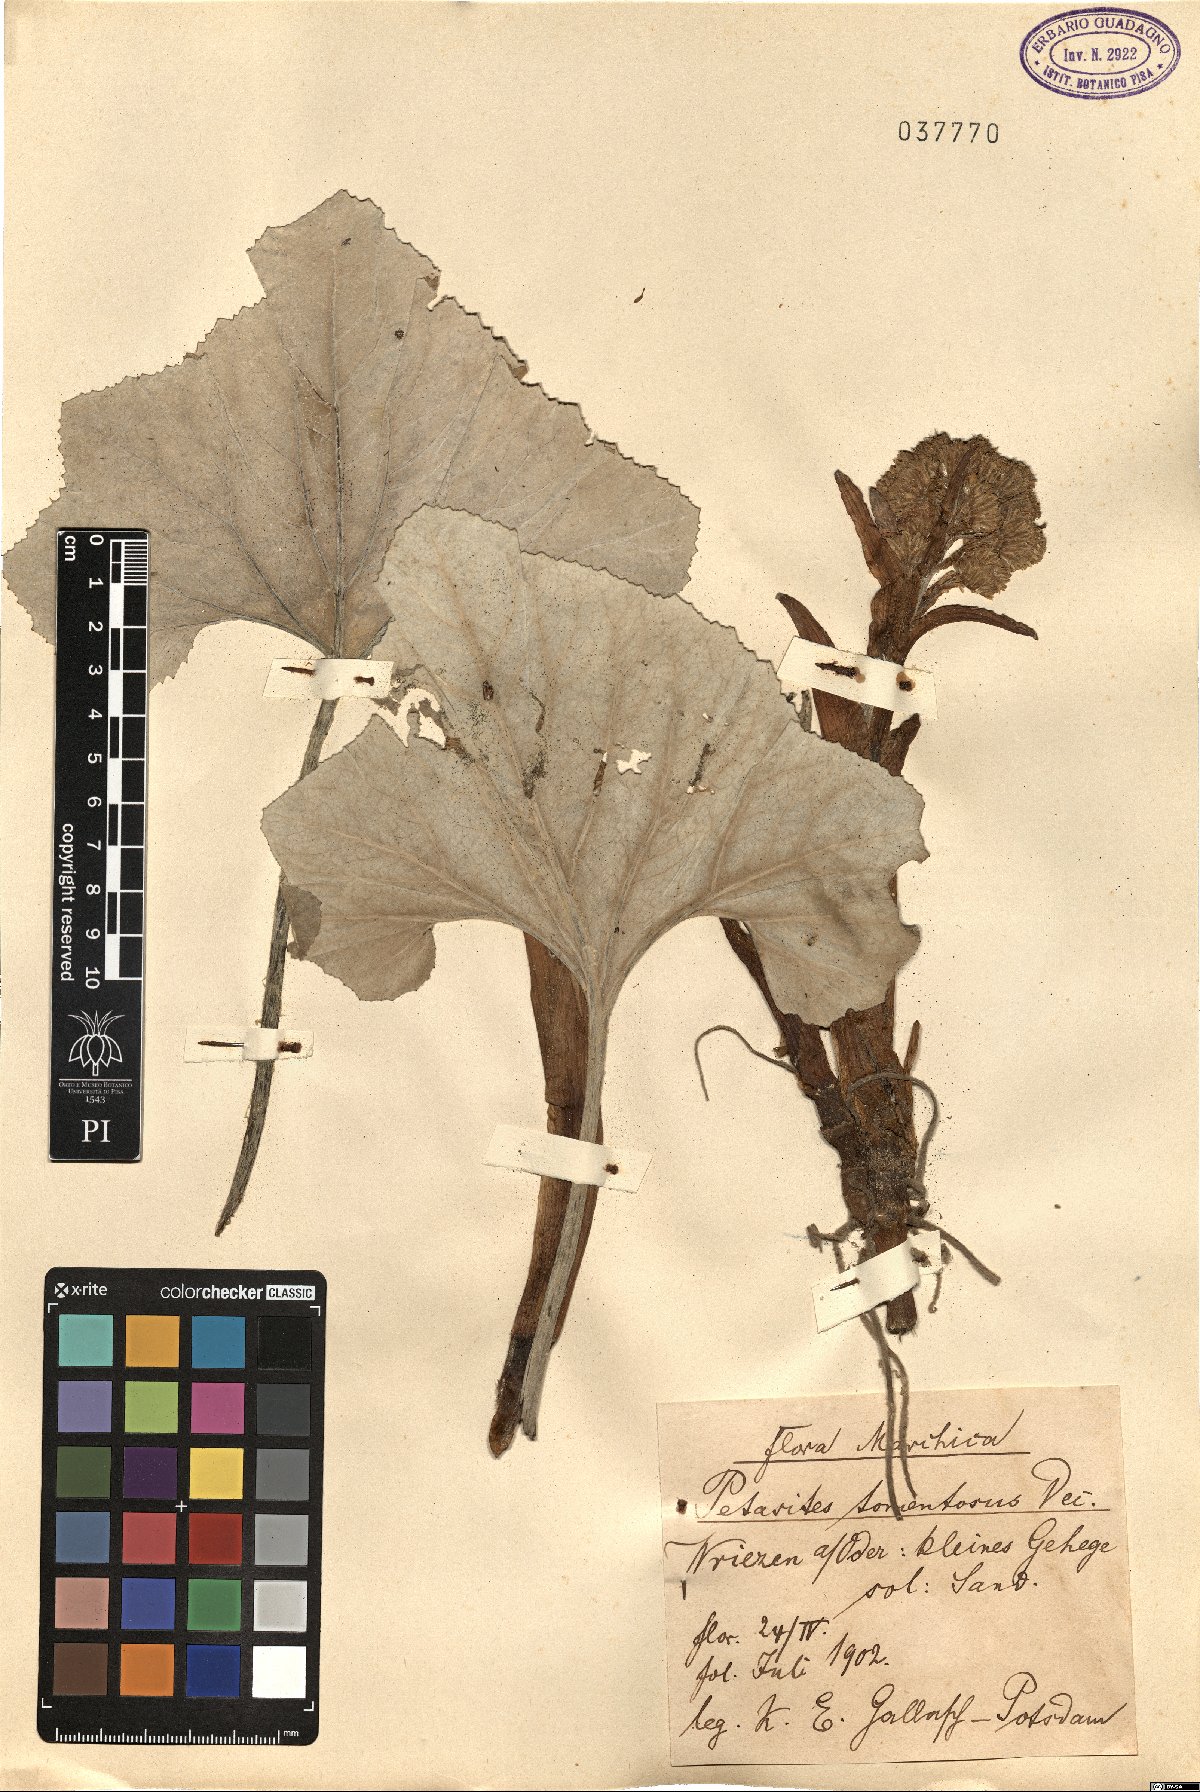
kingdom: Plantae
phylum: Tracheophyta
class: Magnoliopsida
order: Asterales
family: Asteraceae
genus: Petasites
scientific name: Petasites spurius
